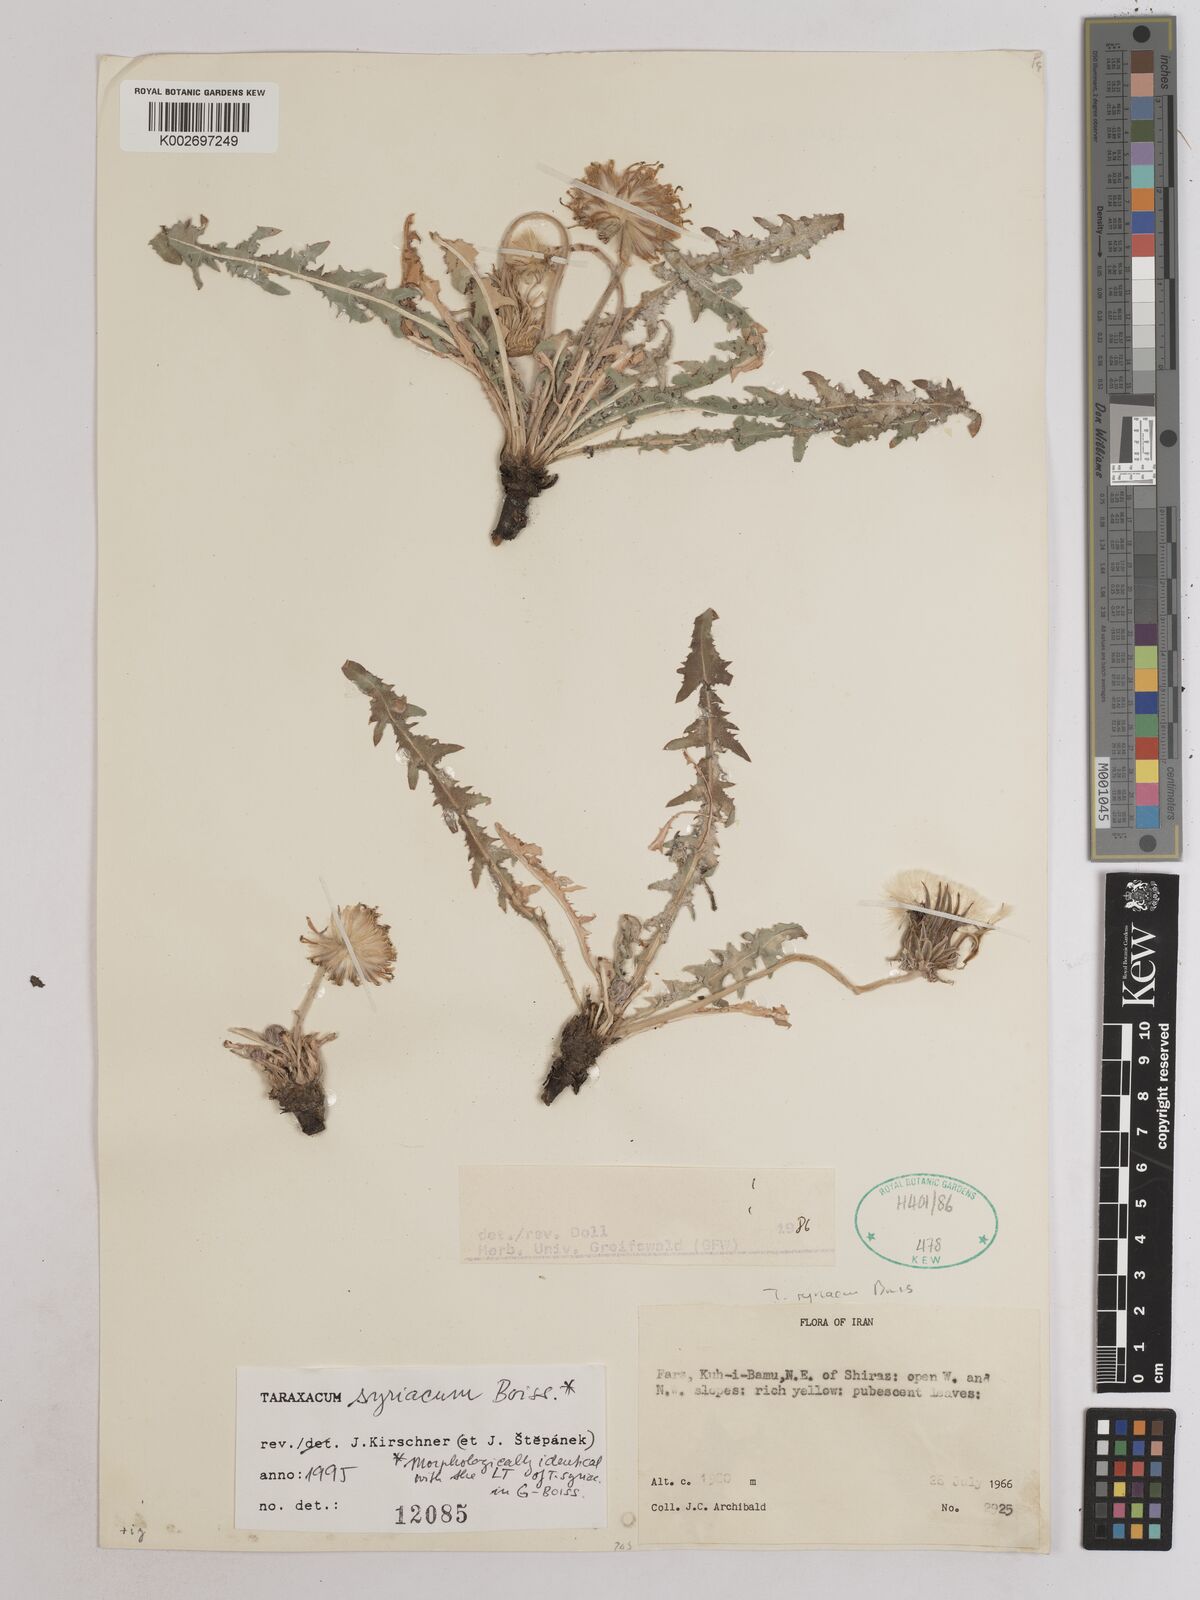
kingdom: Plantae
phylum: Tracheophyta
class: Magnoliopsida
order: Asterales
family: Asteraceae
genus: Taraxacum
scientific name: Taraxacum syriacum
